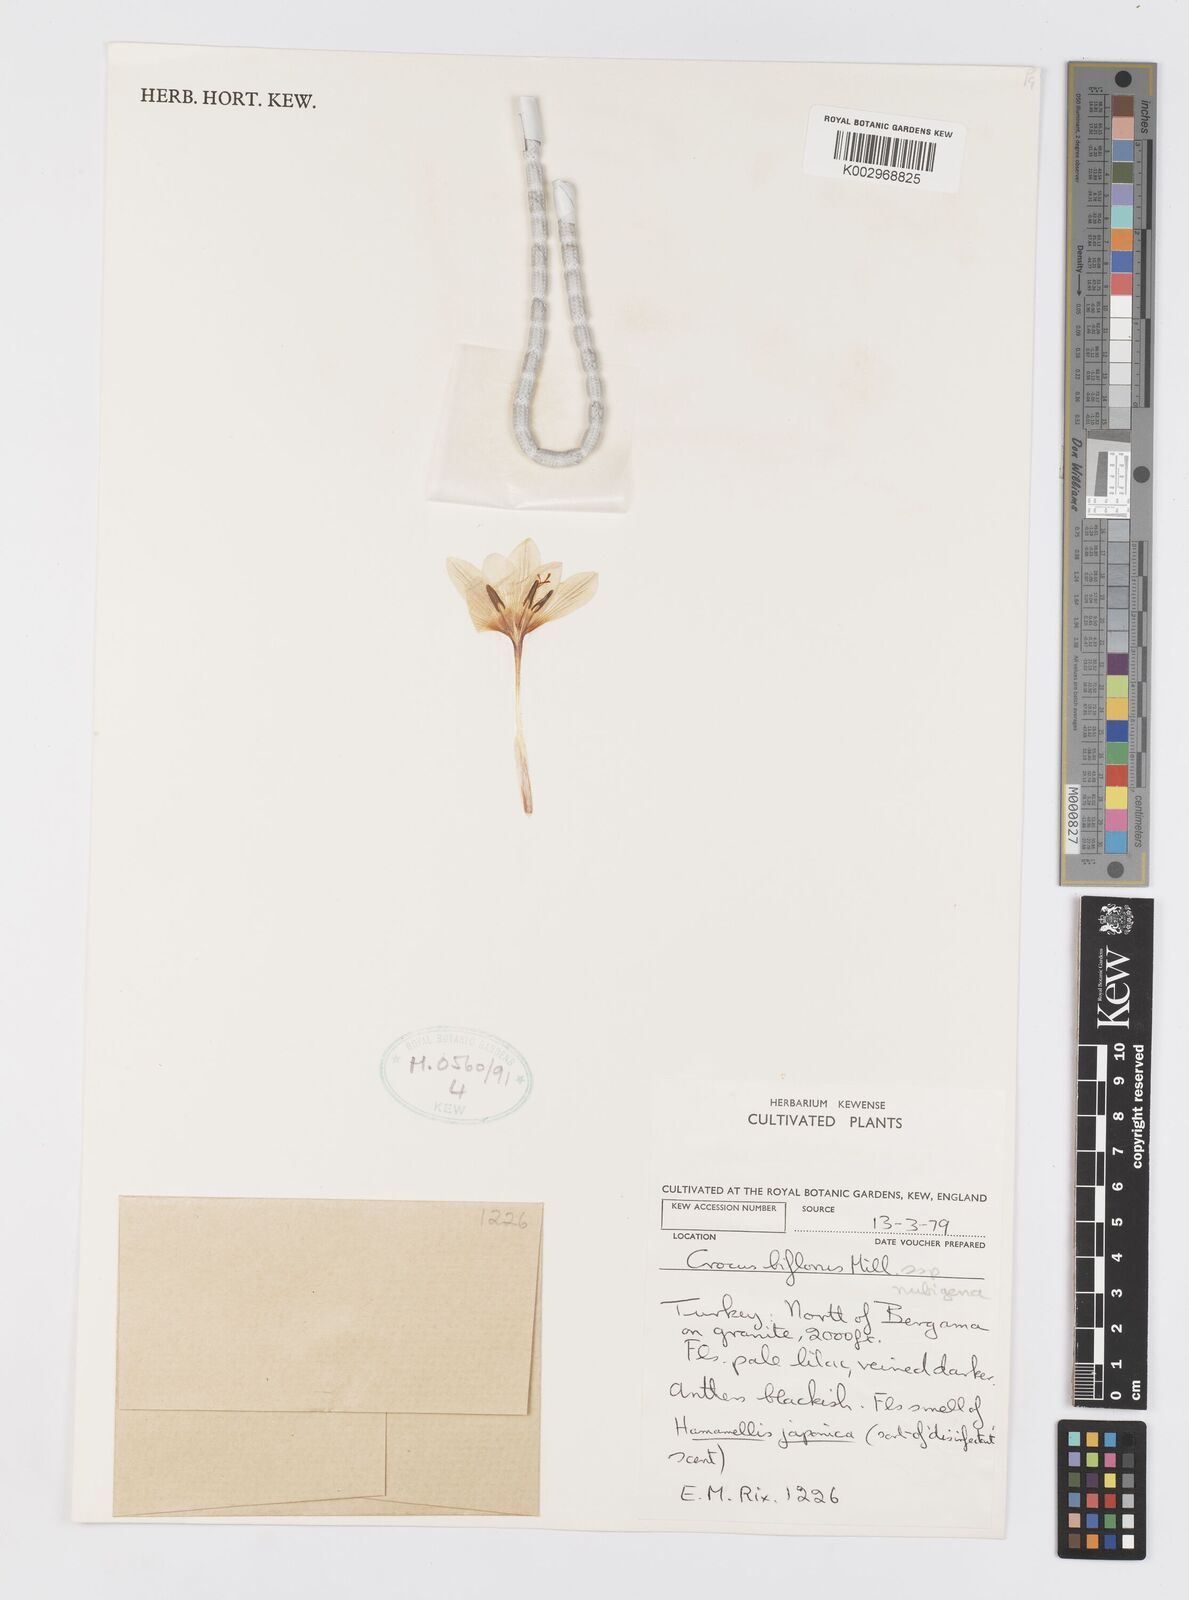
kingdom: Plantae
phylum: Tracheophyta
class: Liliopsida
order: Asparagales
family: Iridaceae
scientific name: Iridaceae
